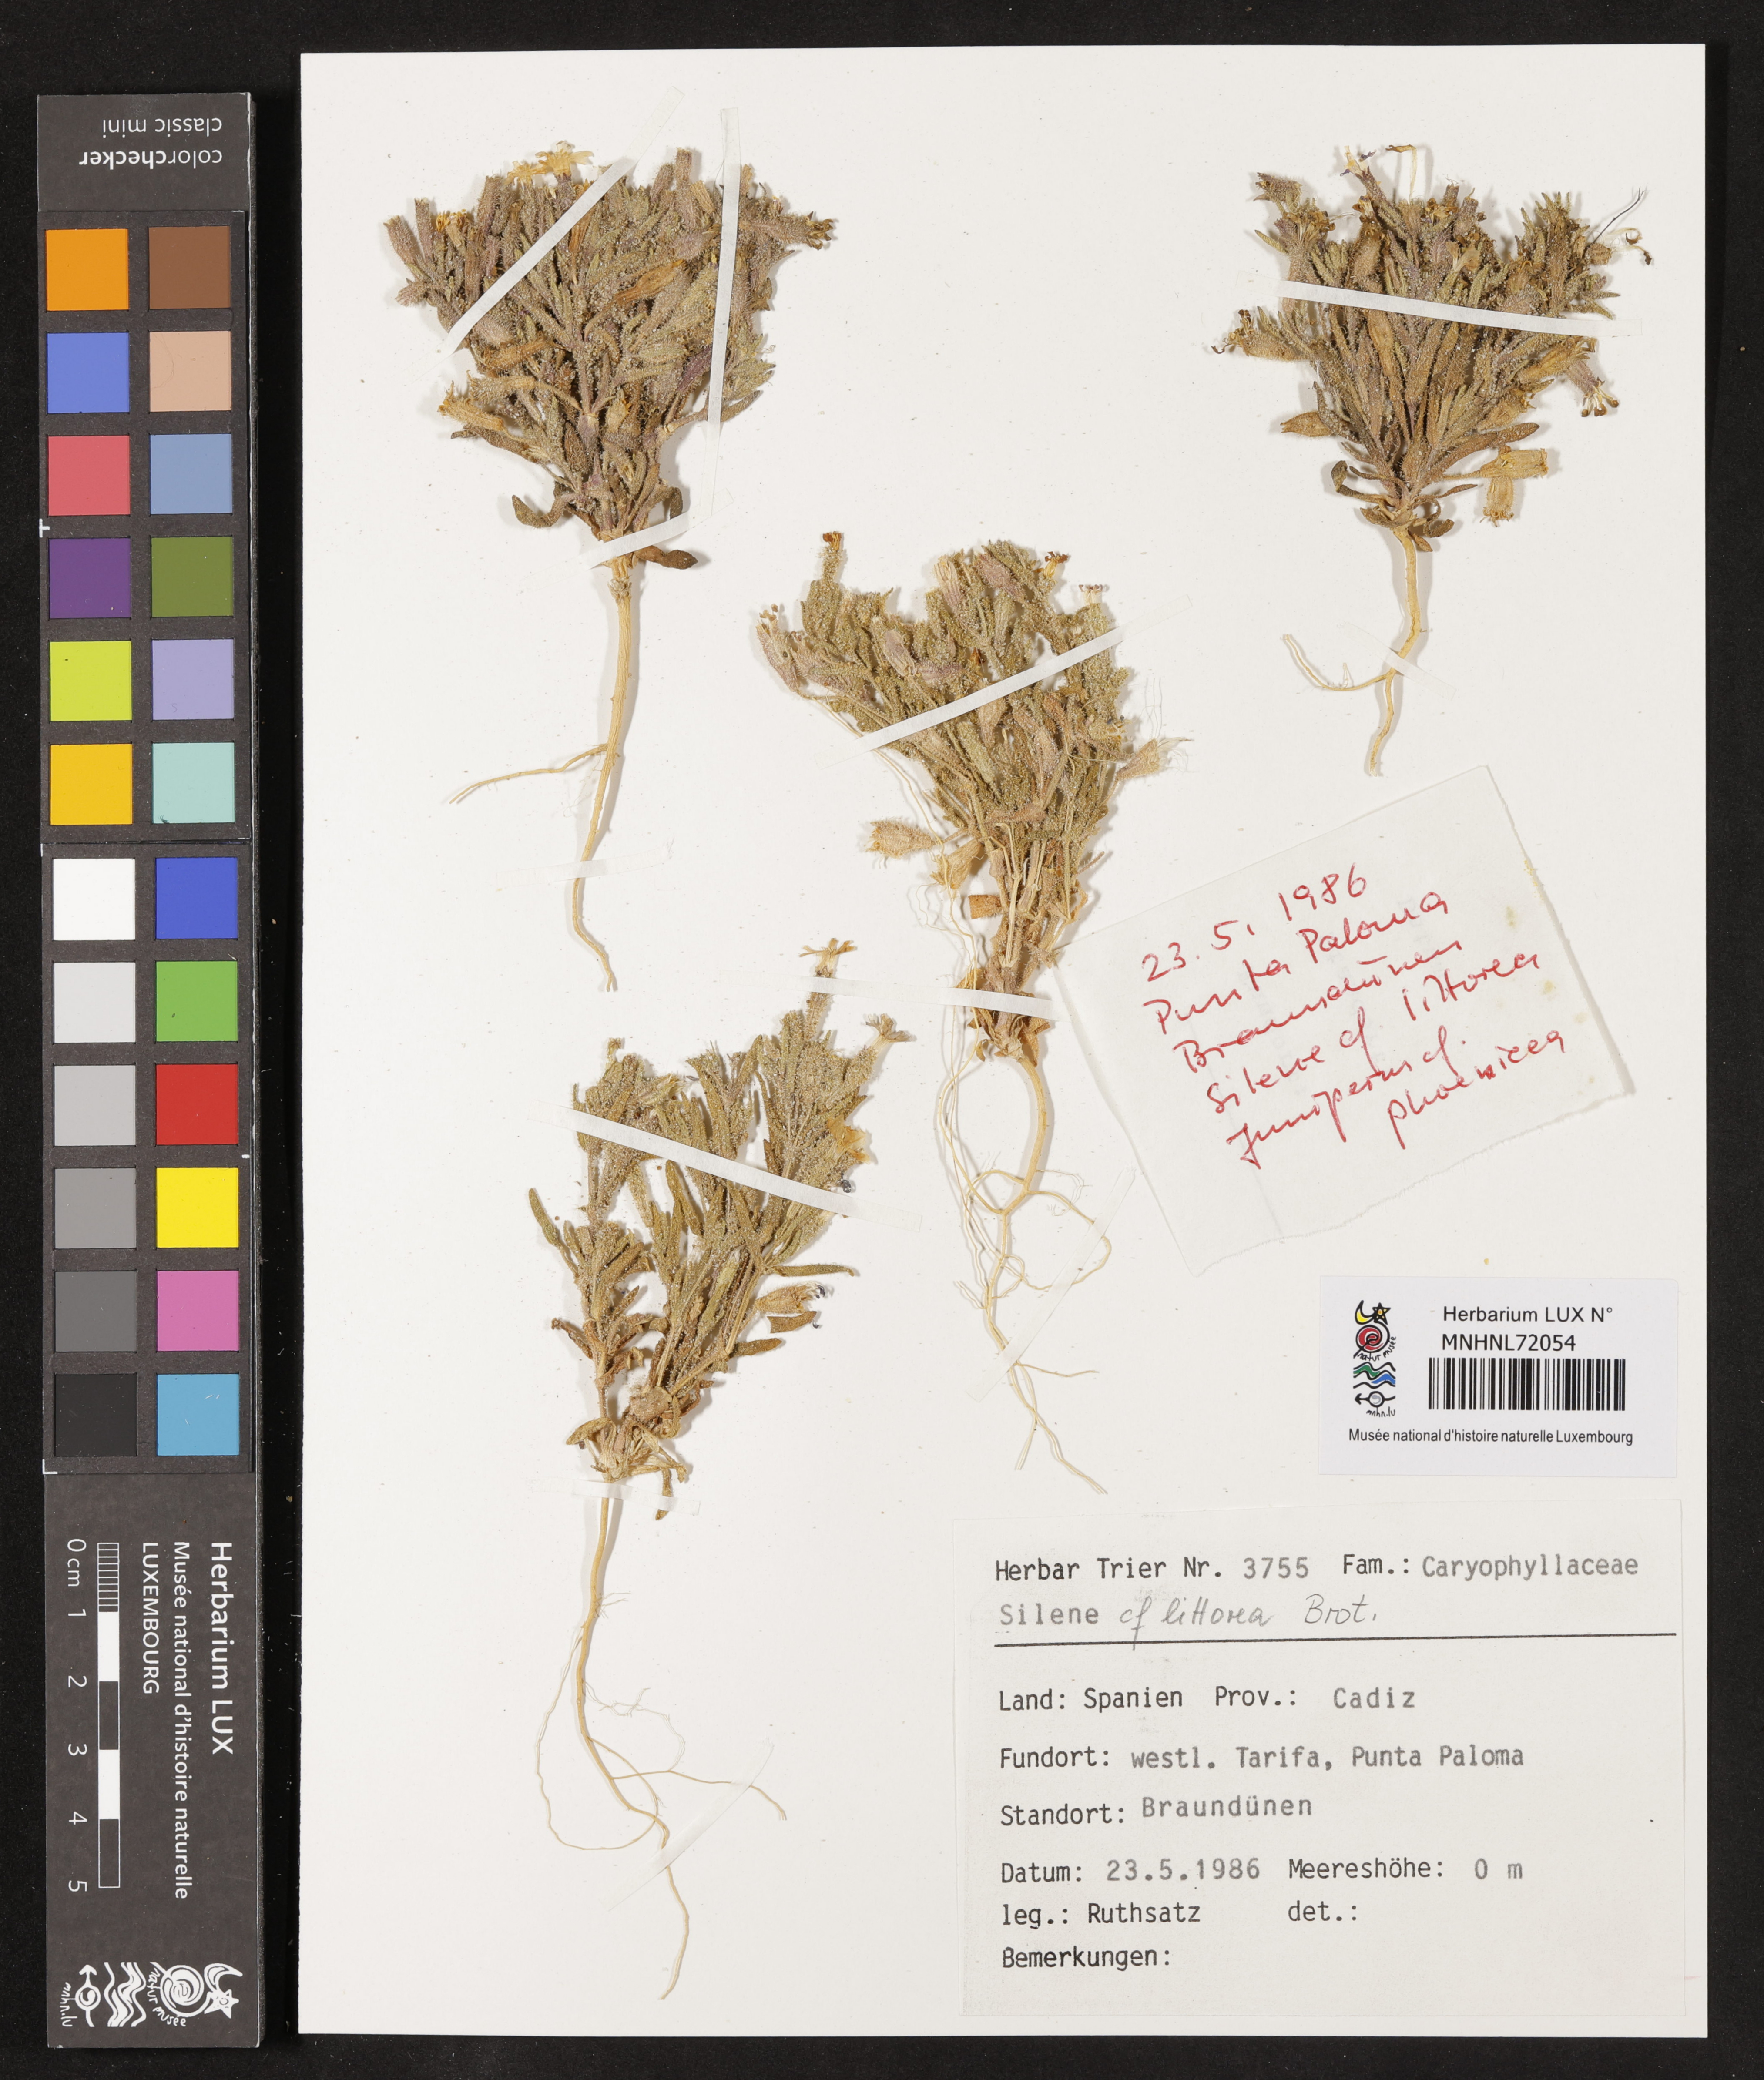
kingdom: Plantae
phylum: Tracheophyta
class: Magnoliopsida
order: Caryophyllales
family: Caryophyllaceae
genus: Silene
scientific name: Silene littorea
